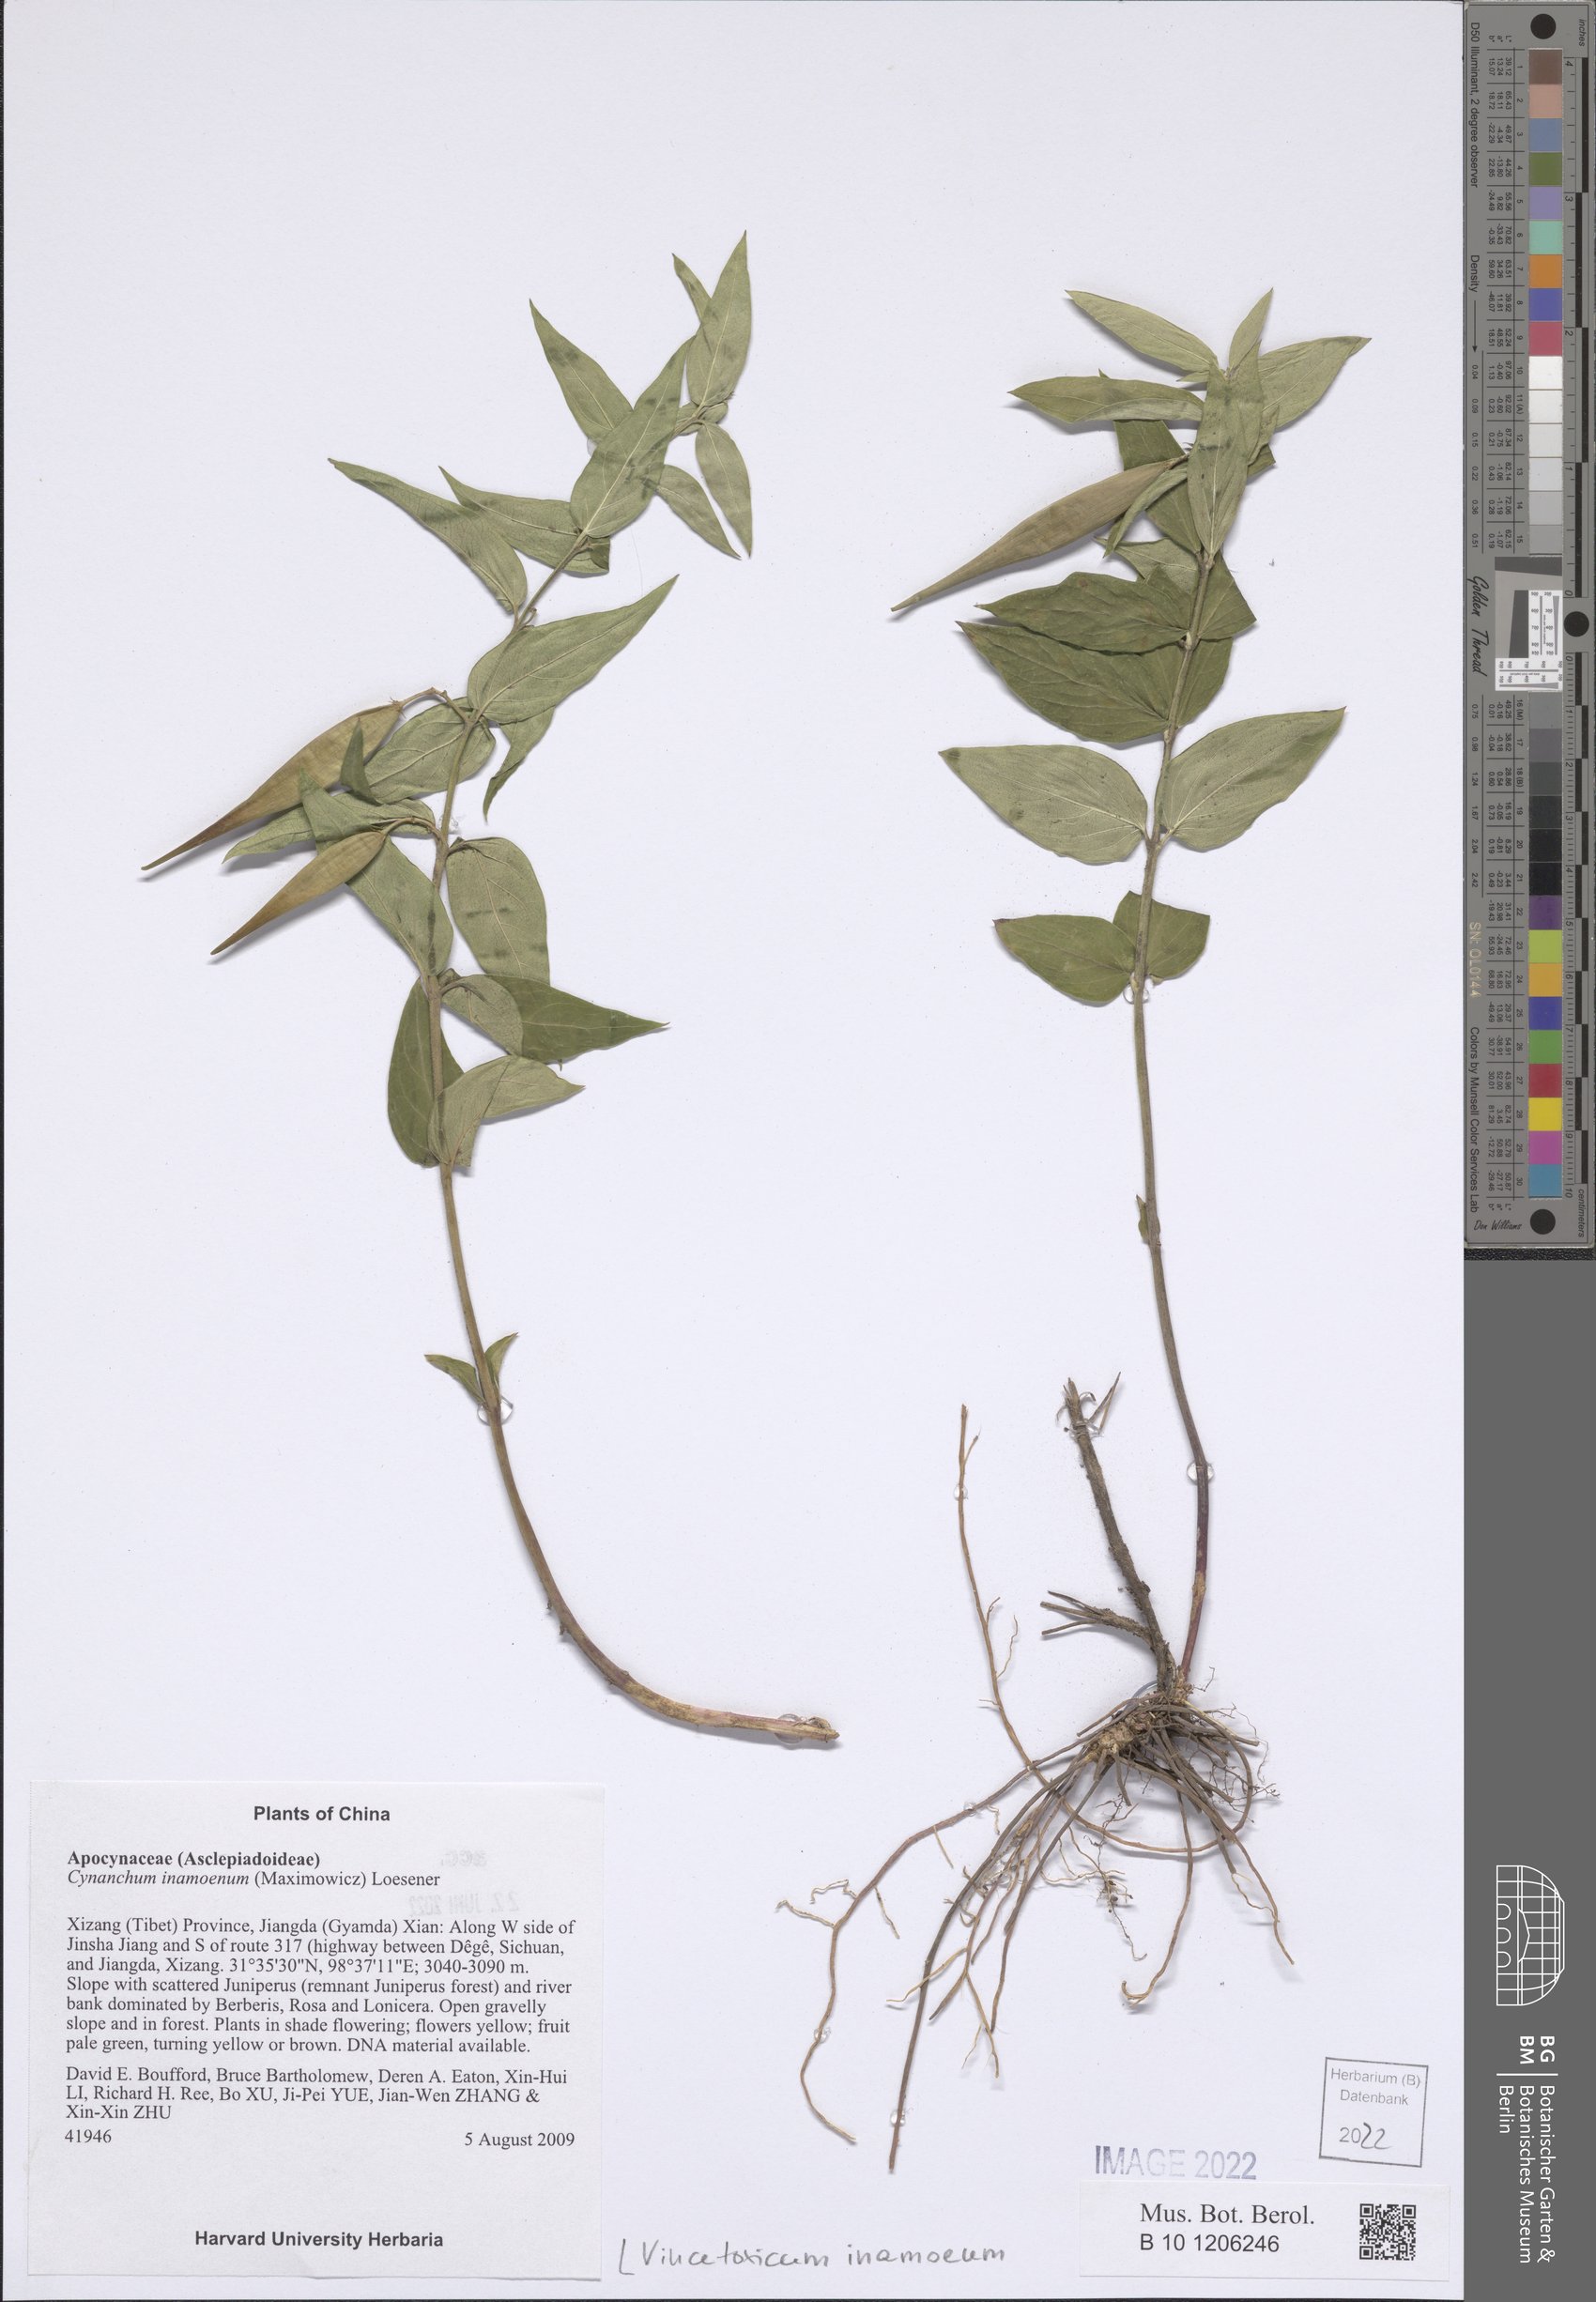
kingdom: Plantae
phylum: Tracheophyta
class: Magnoliopsida
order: Gentianales
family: Apocynaceae
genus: Vincetoxicum
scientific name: Vincetoxicum inamoenum
